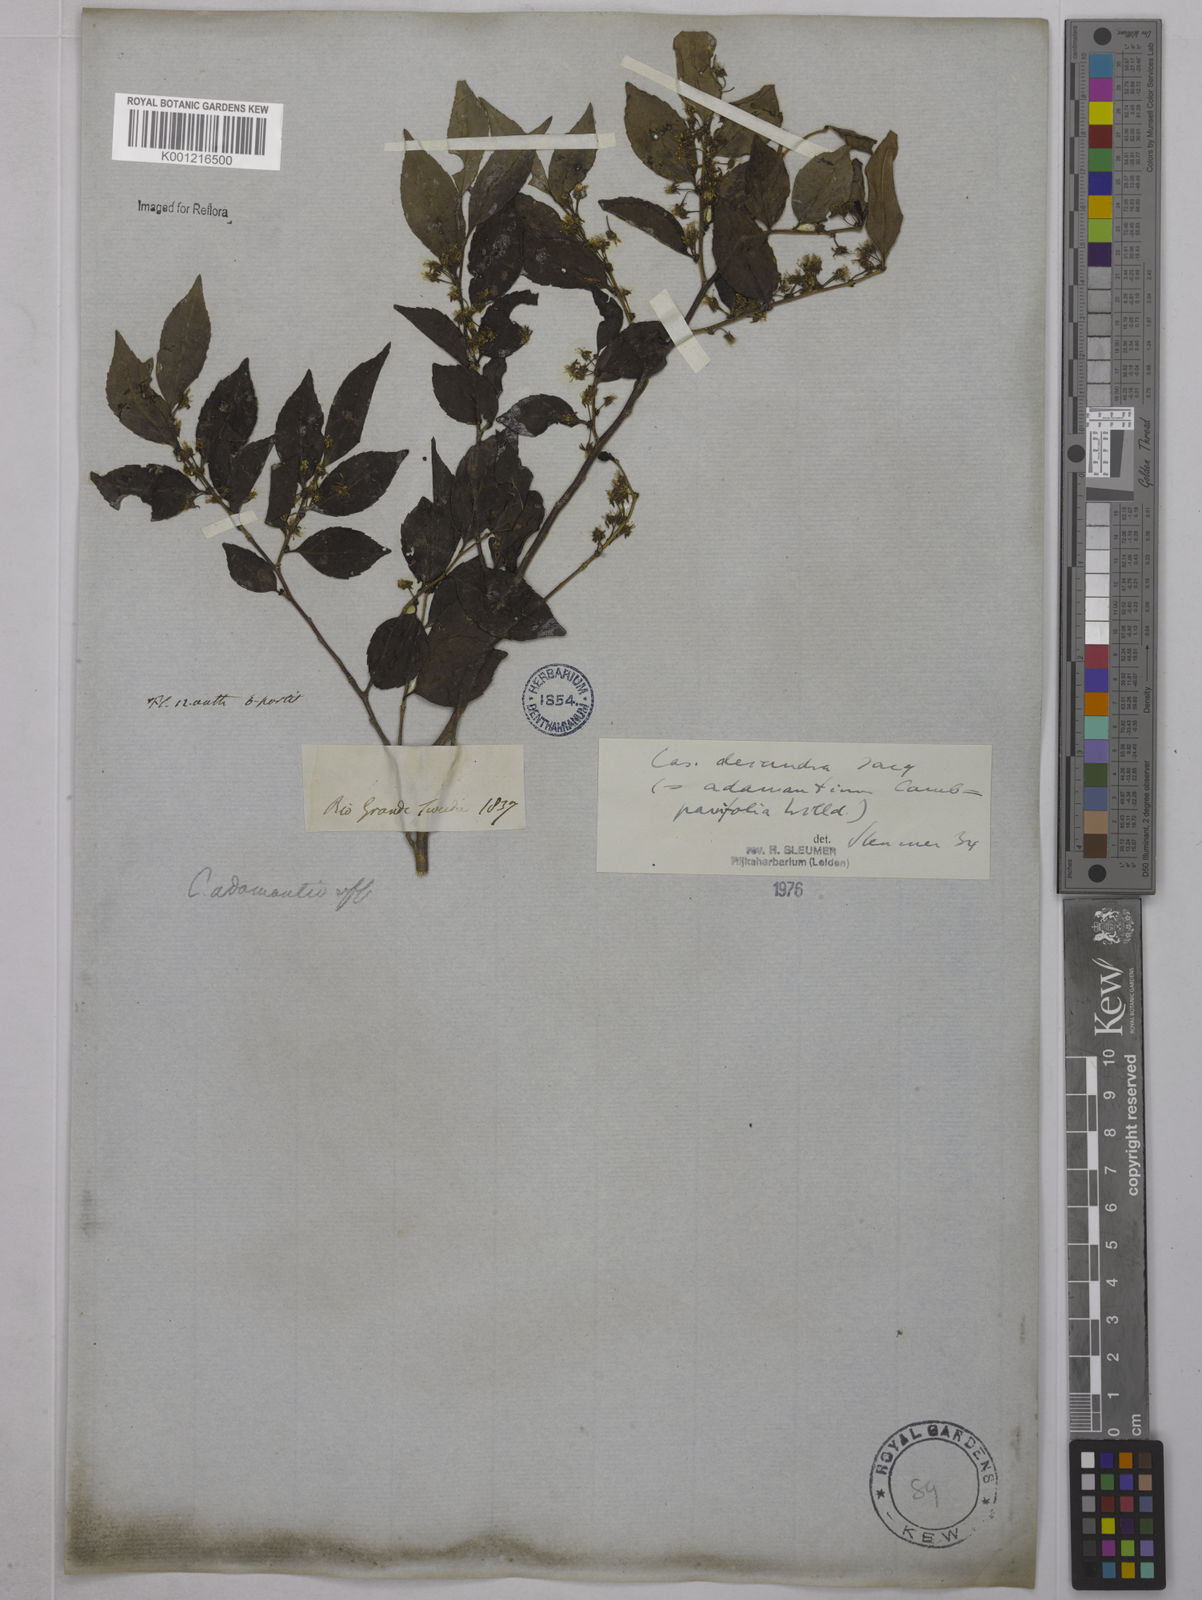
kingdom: Plantae
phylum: Tracheophyta
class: Magnoliopsida
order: Malpighiales
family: Salicaceae
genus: Casearia
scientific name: Casearia decandra
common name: Crack open
